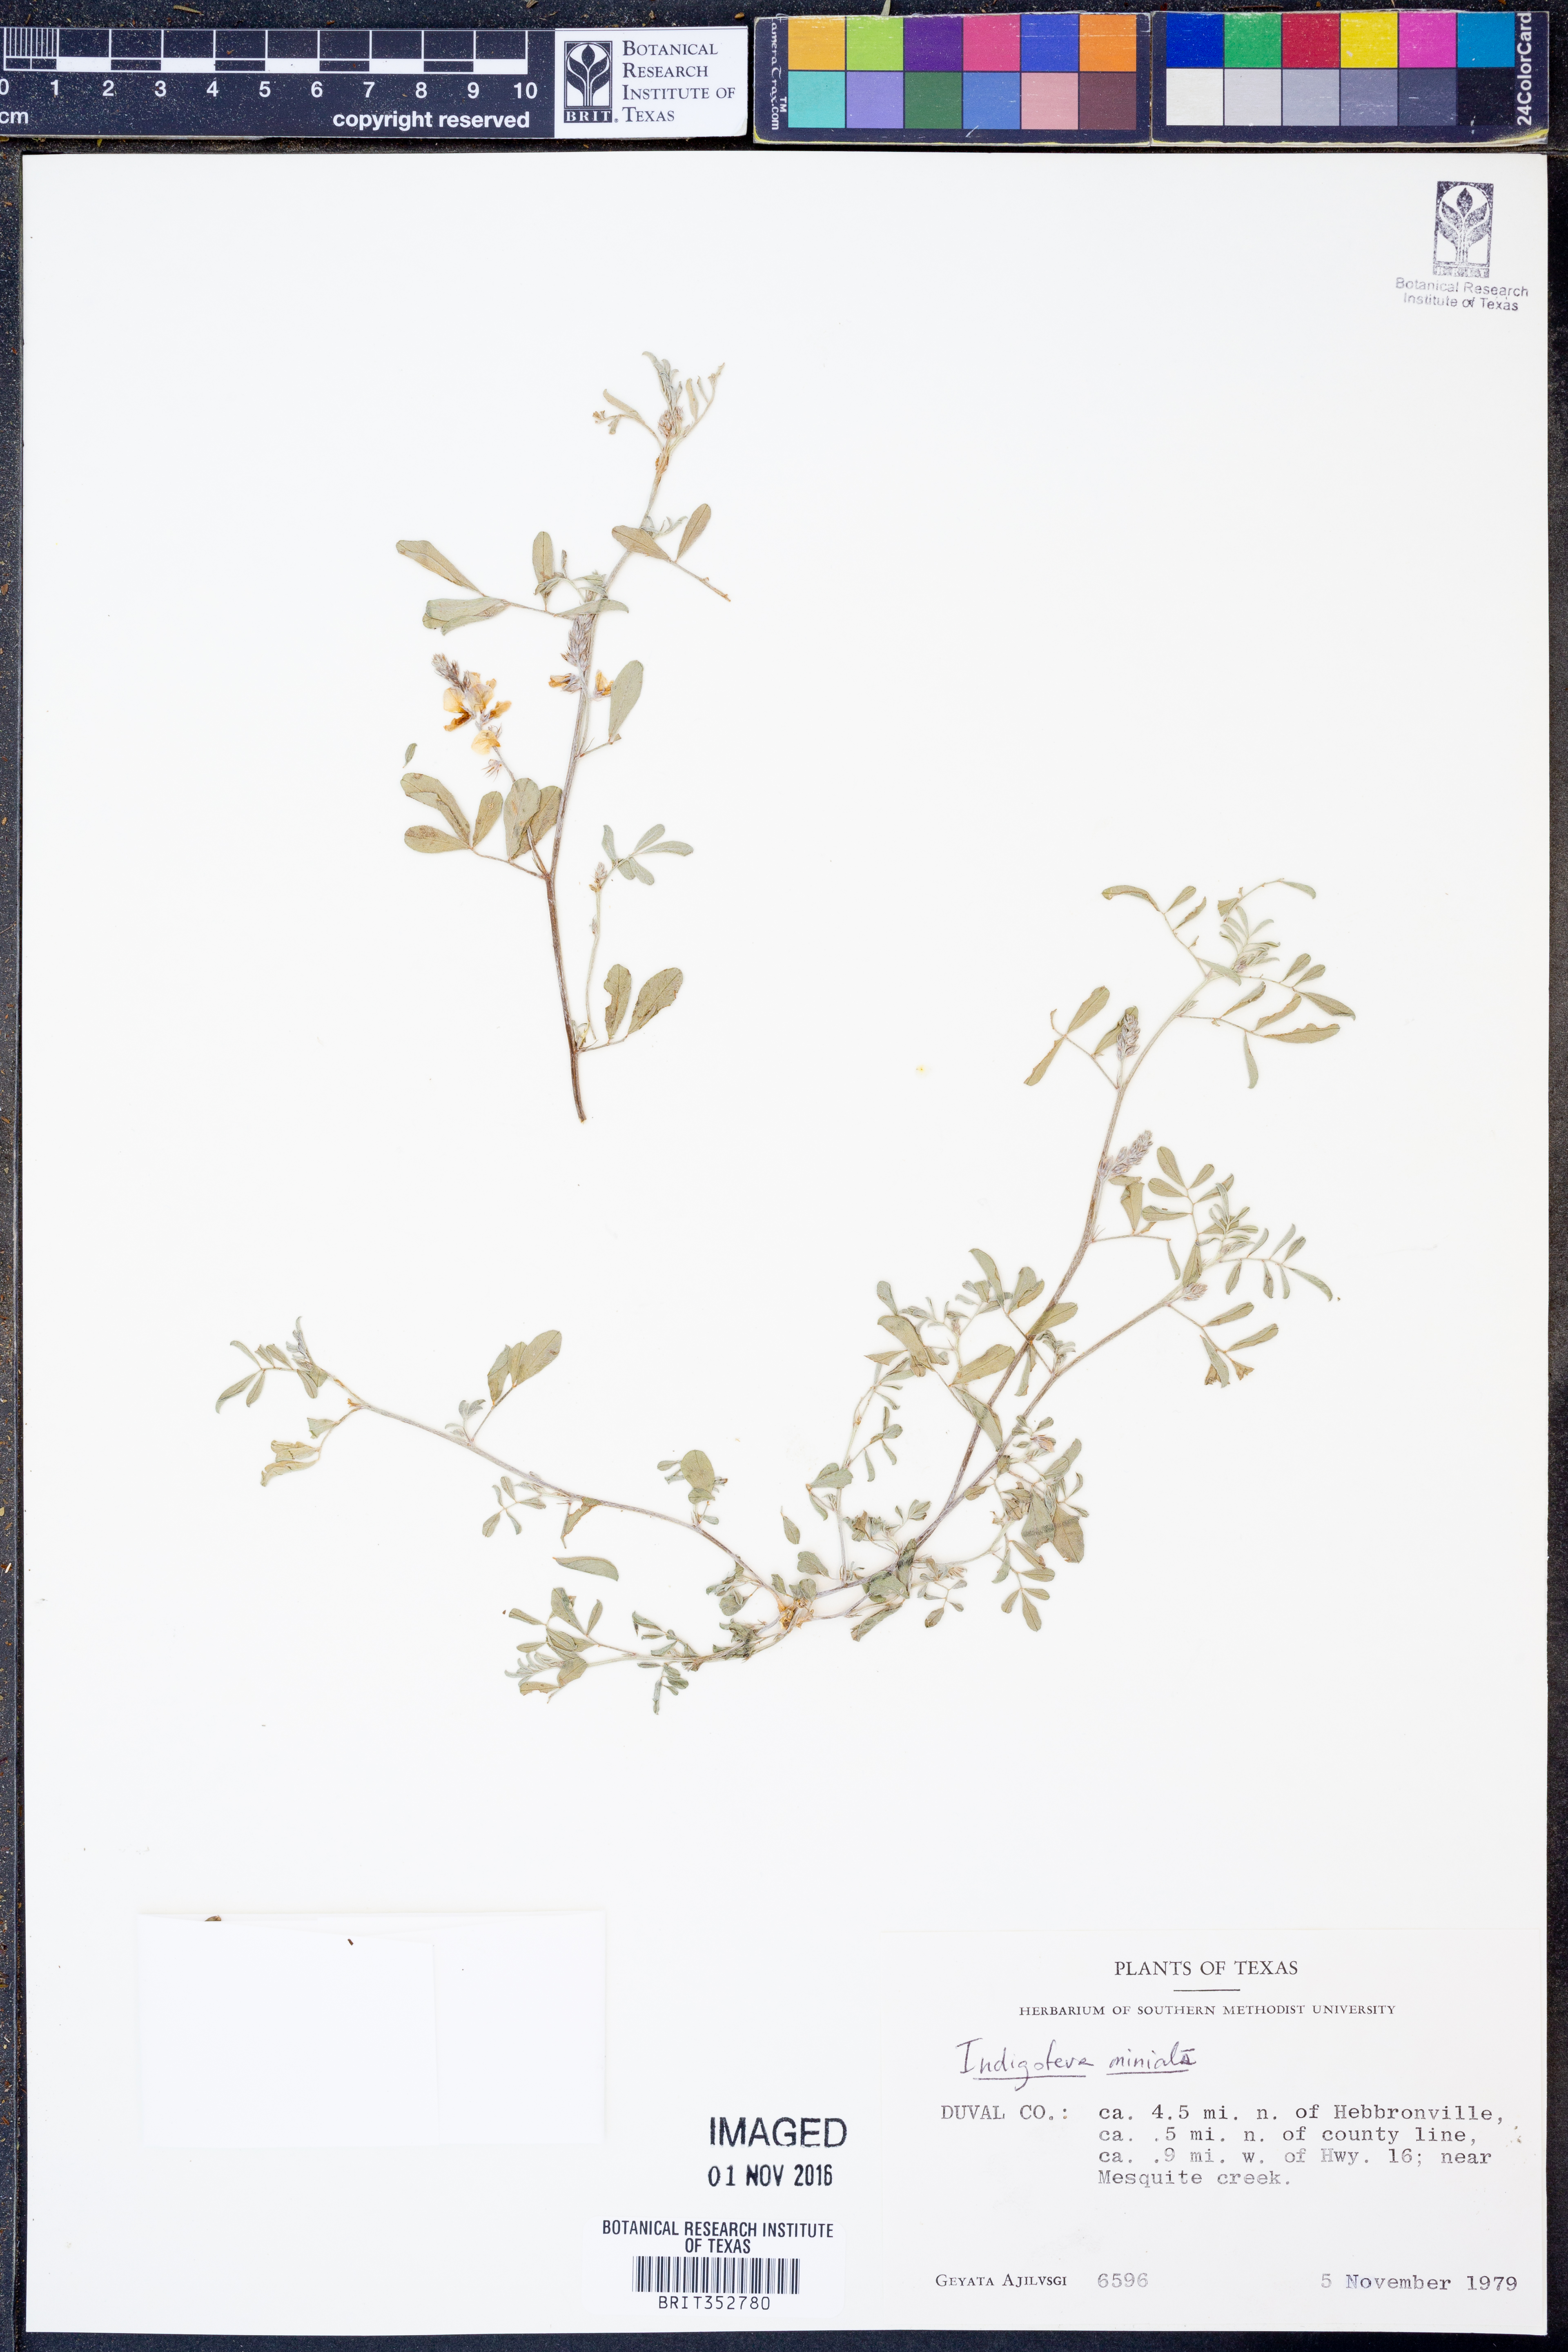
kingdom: Plantae
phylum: Tracheophyta
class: Magnoliopsida
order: Fabales
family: Fabaceae
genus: Indigofera
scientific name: Indigofera miniata
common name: Coast indigo
